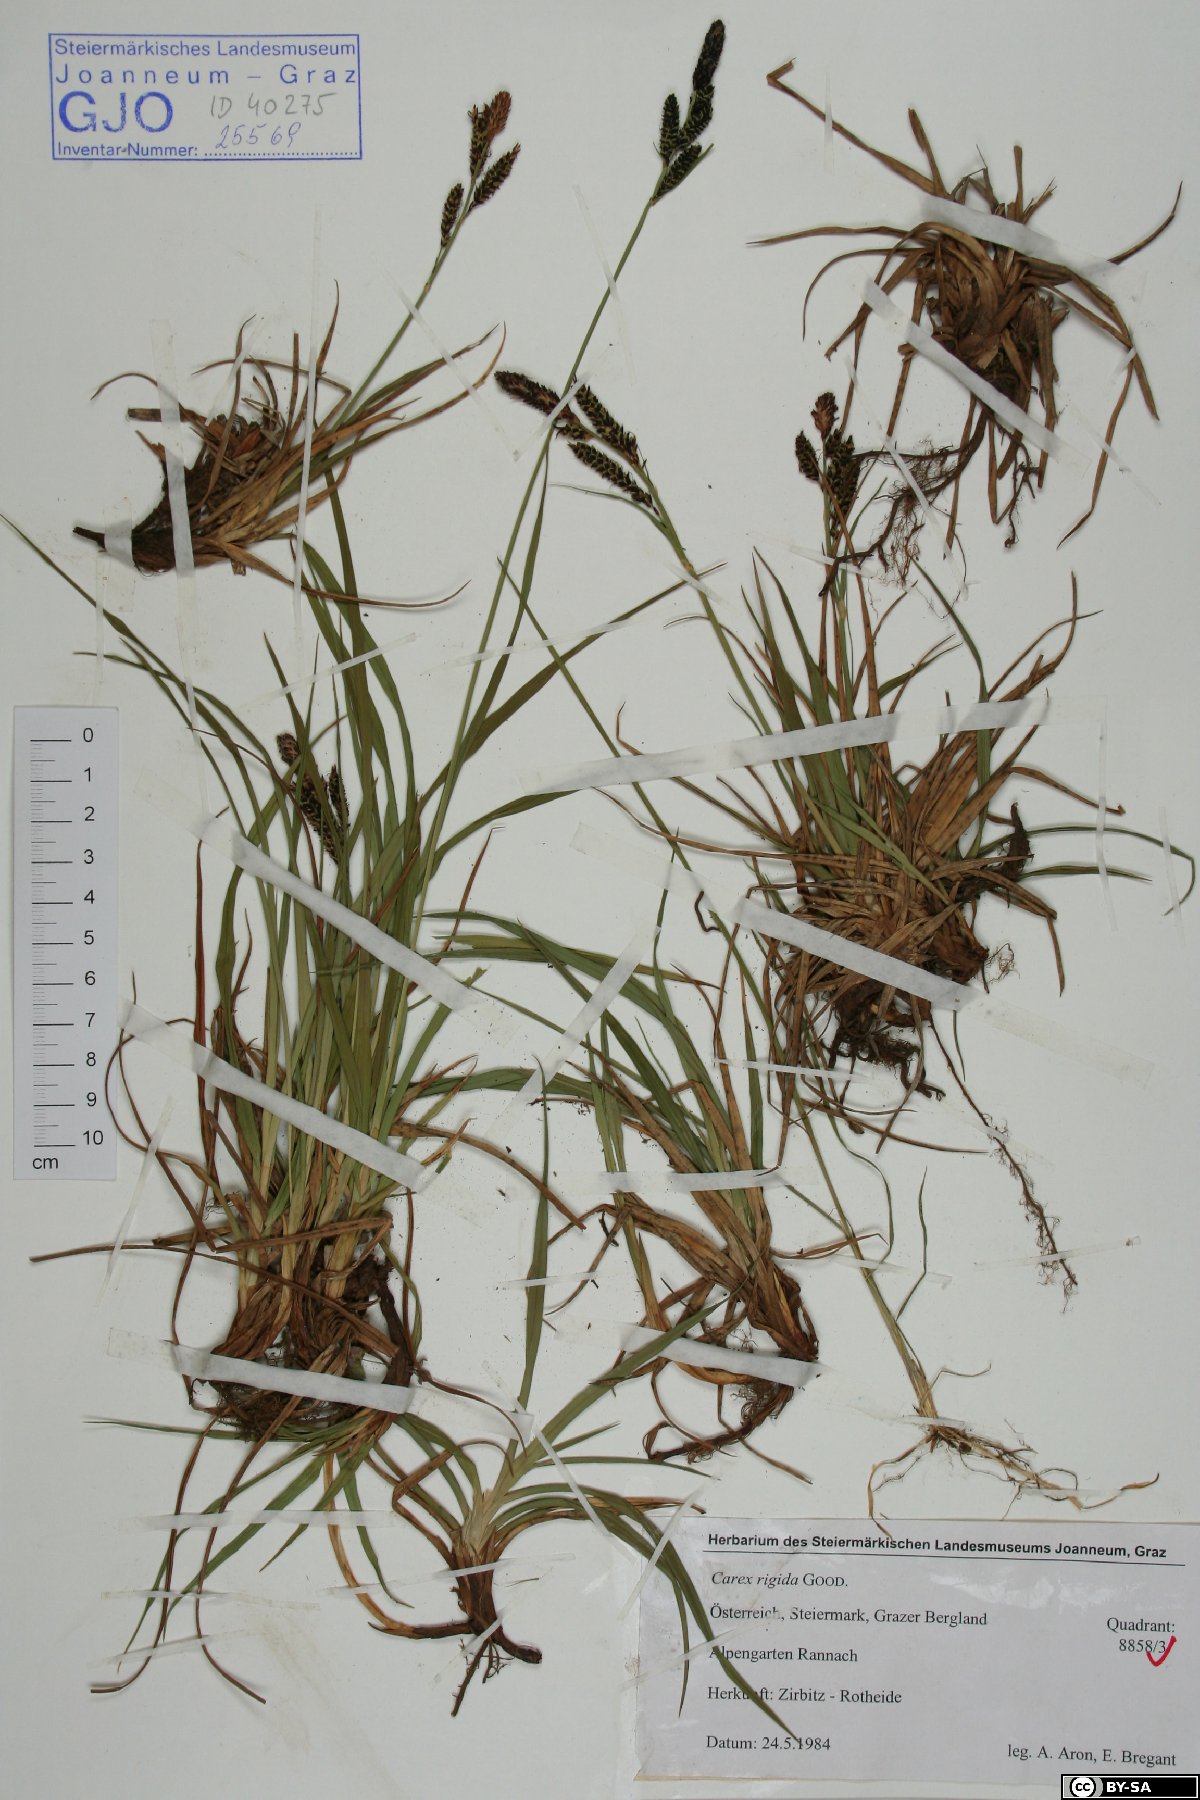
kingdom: Plantae
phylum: Tracheophyta
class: Liliopsida
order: Poales
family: Cyperaceae
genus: Carex
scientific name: Carex dacica
